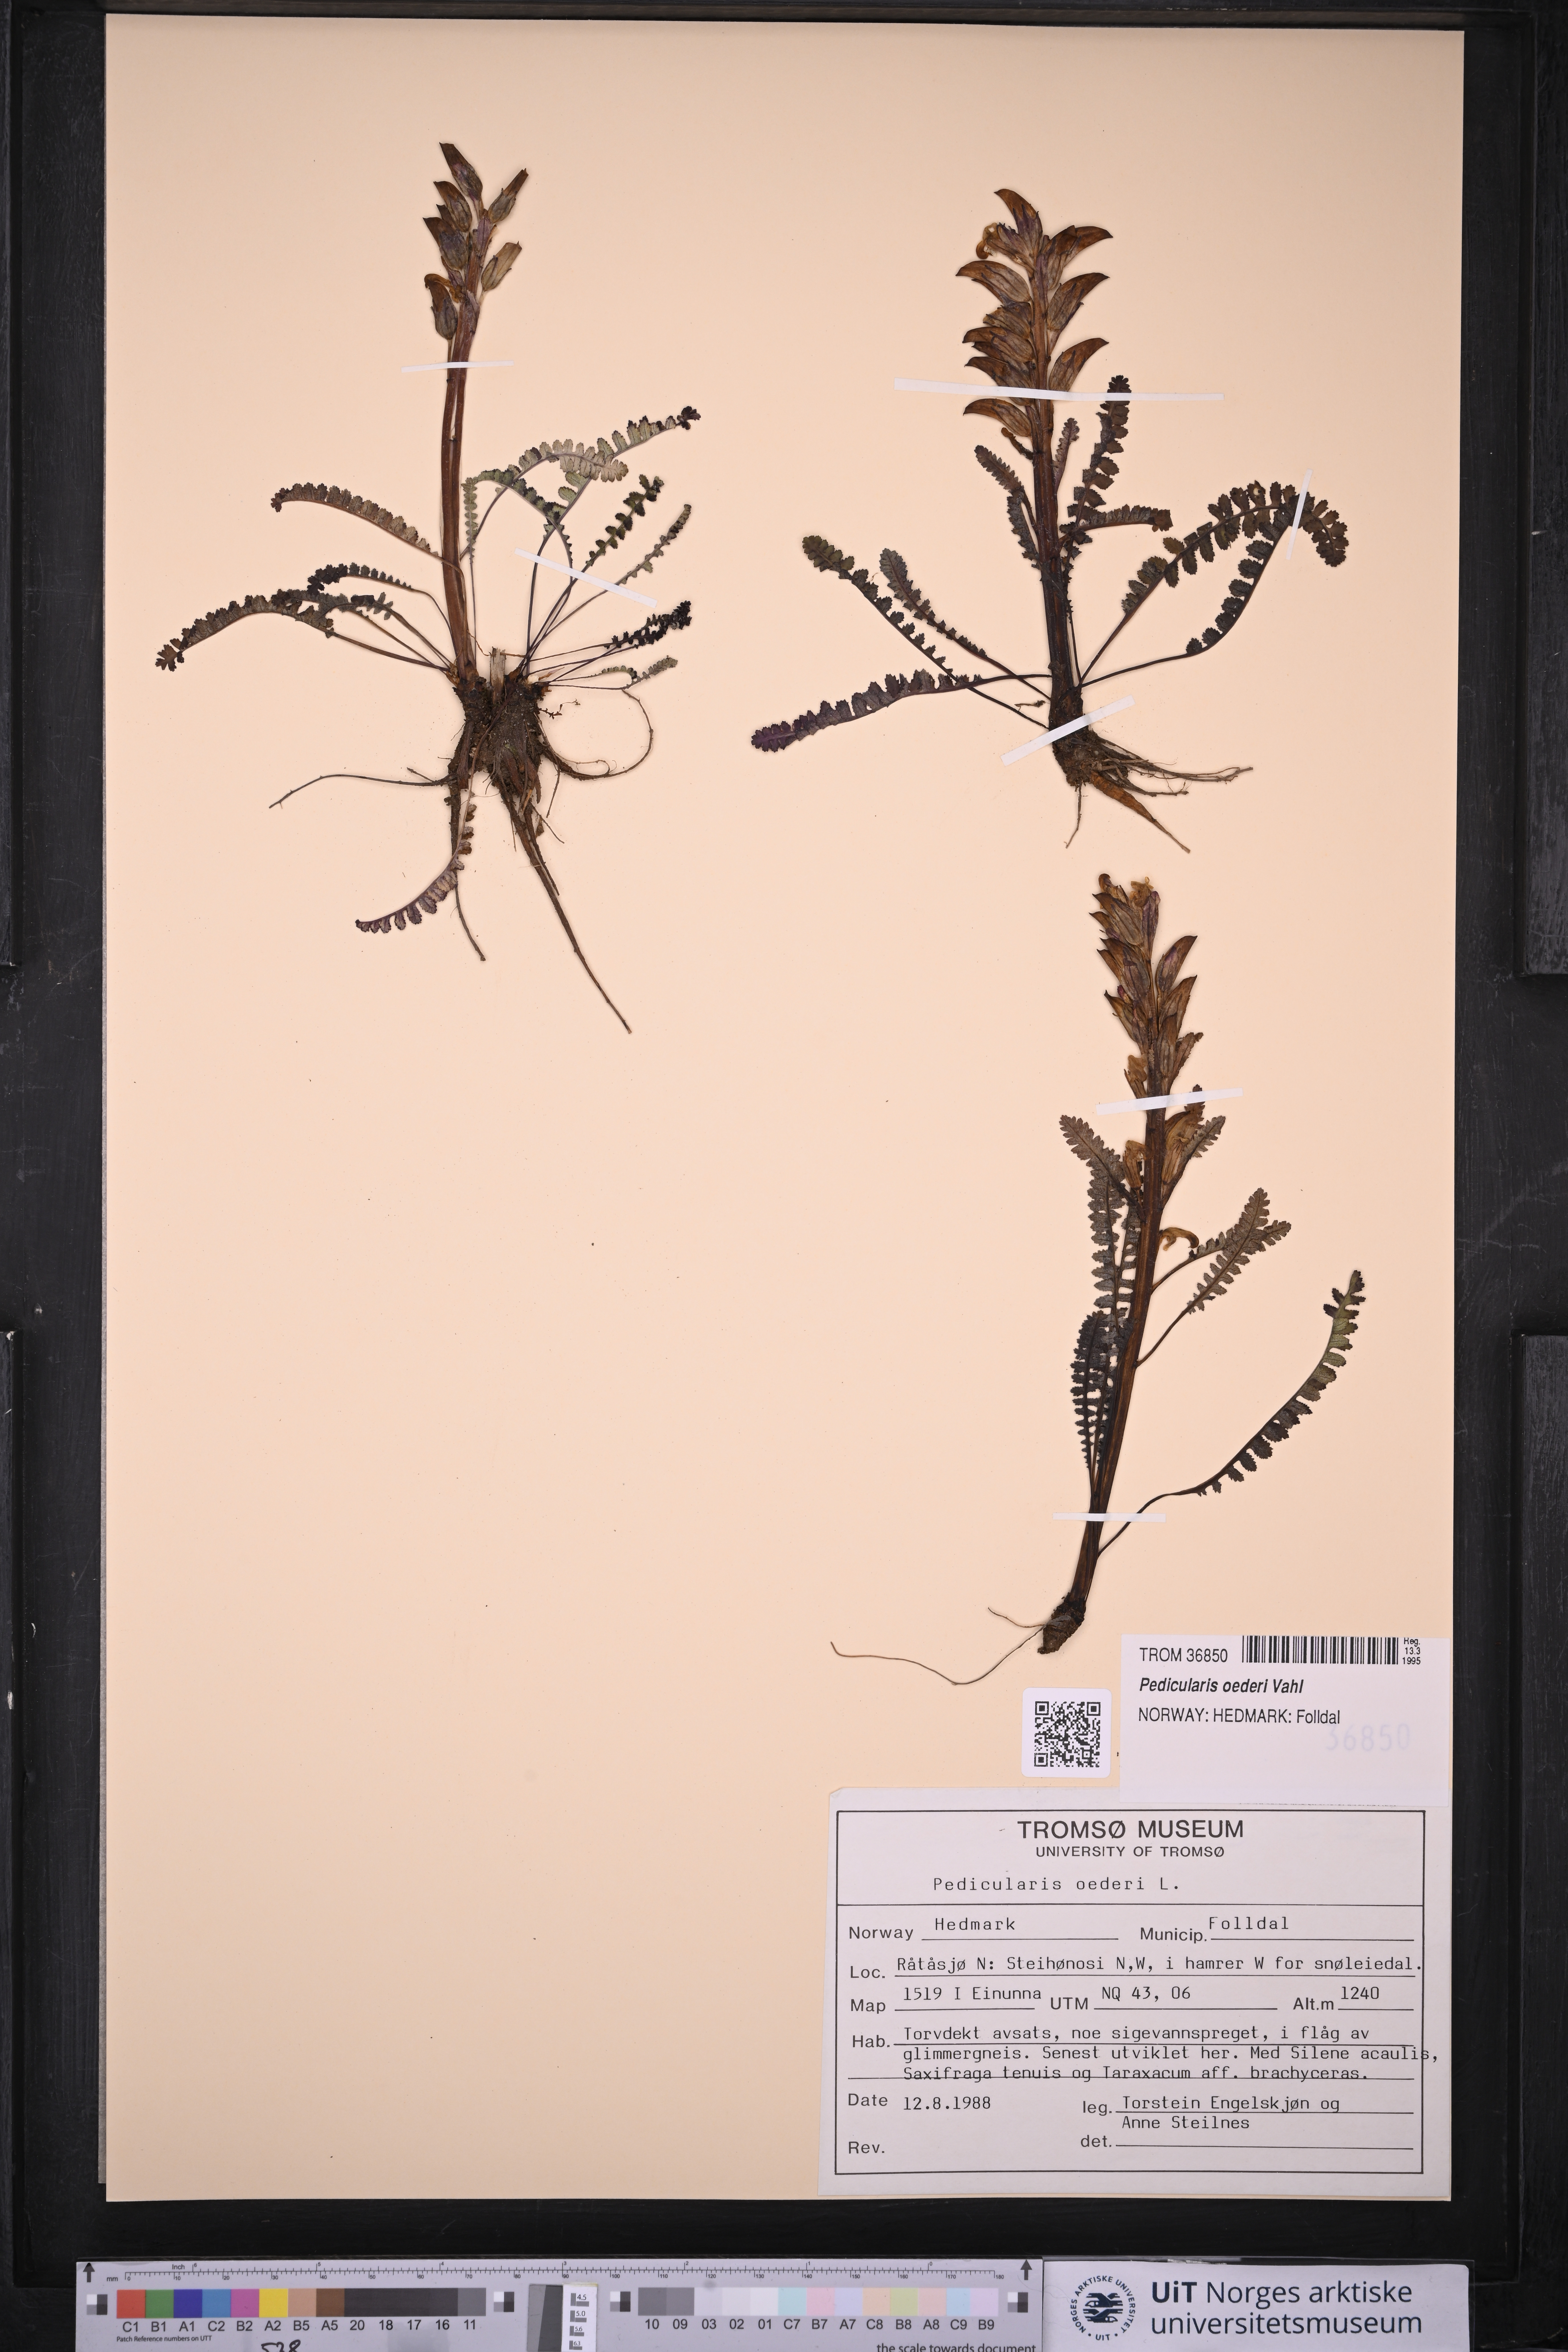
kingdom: Plantae
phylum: Tracheophyta
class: Magnoliopsida
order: Lamiales
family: Orobanchaceae
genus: Pedicularis
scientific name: Pedicularis oederi
